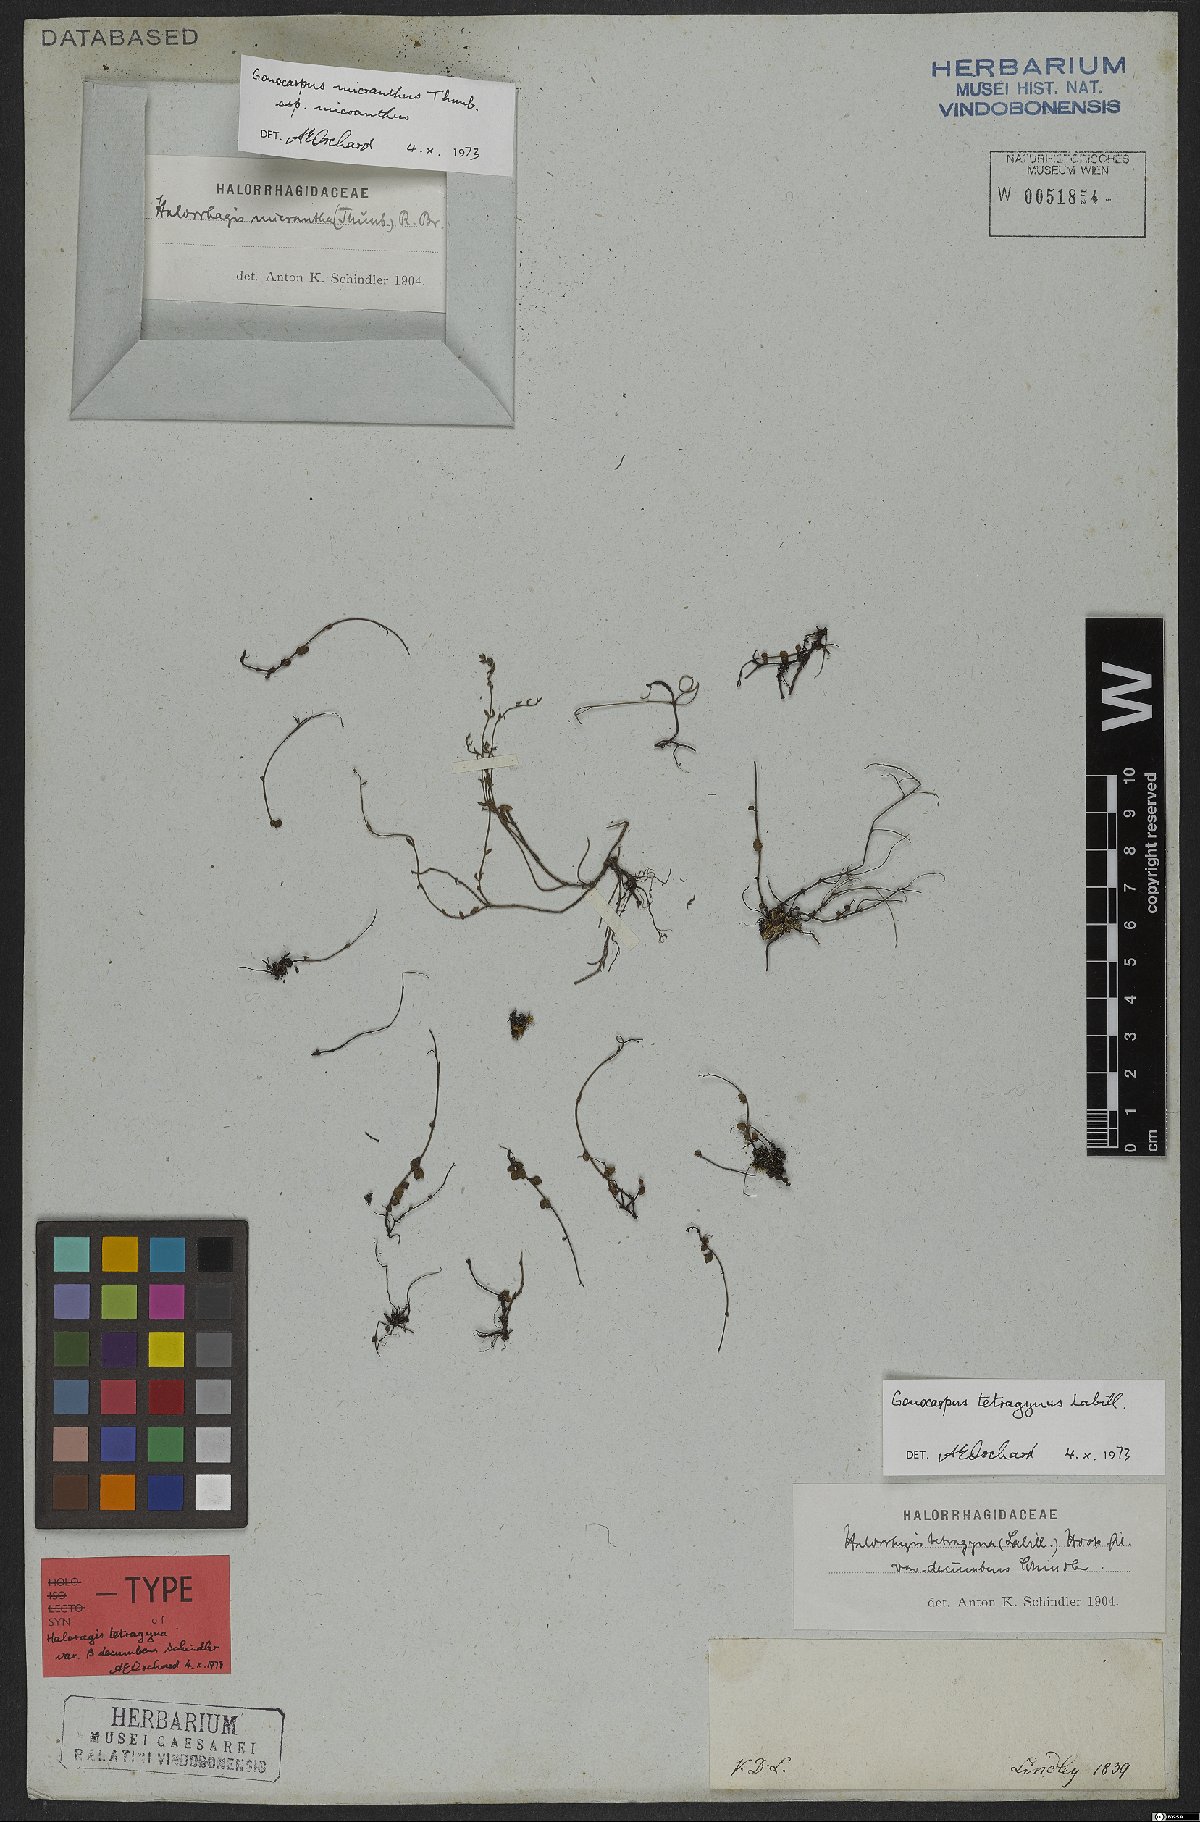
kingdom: Plantae
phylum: Tracheophyta
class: Magnoliopsida
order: Saxifragales
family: Haloragaceae
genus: Gonocarpus
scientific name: Gonocarpus tetragynus
